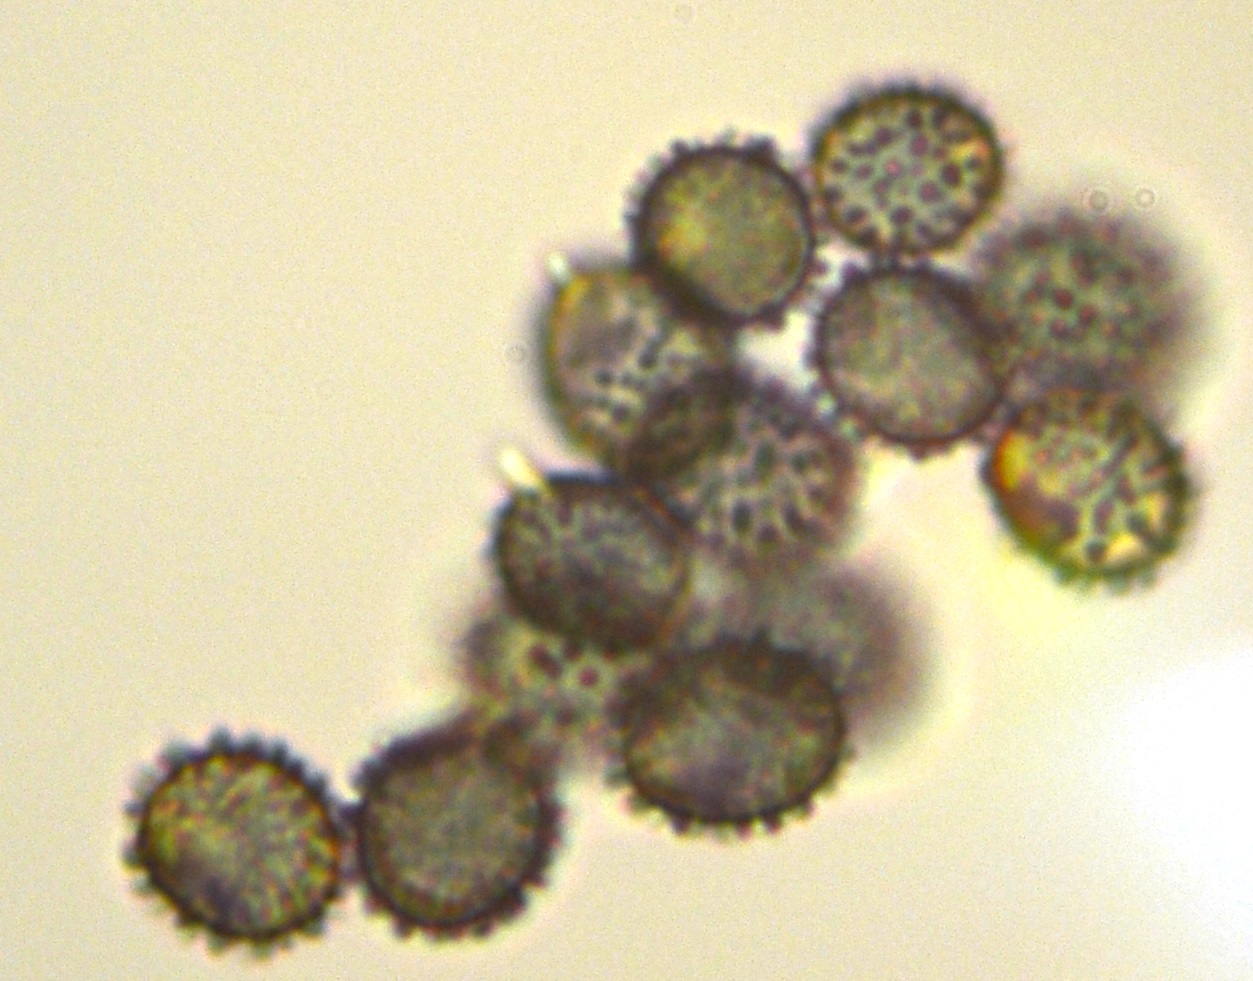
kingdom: Fungi
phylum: Basidiomycota
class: Agaricomycetes
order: Russulales
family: Russulaceae
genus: Russula
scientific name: Russula veternosa
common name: blødkødet skørhat
